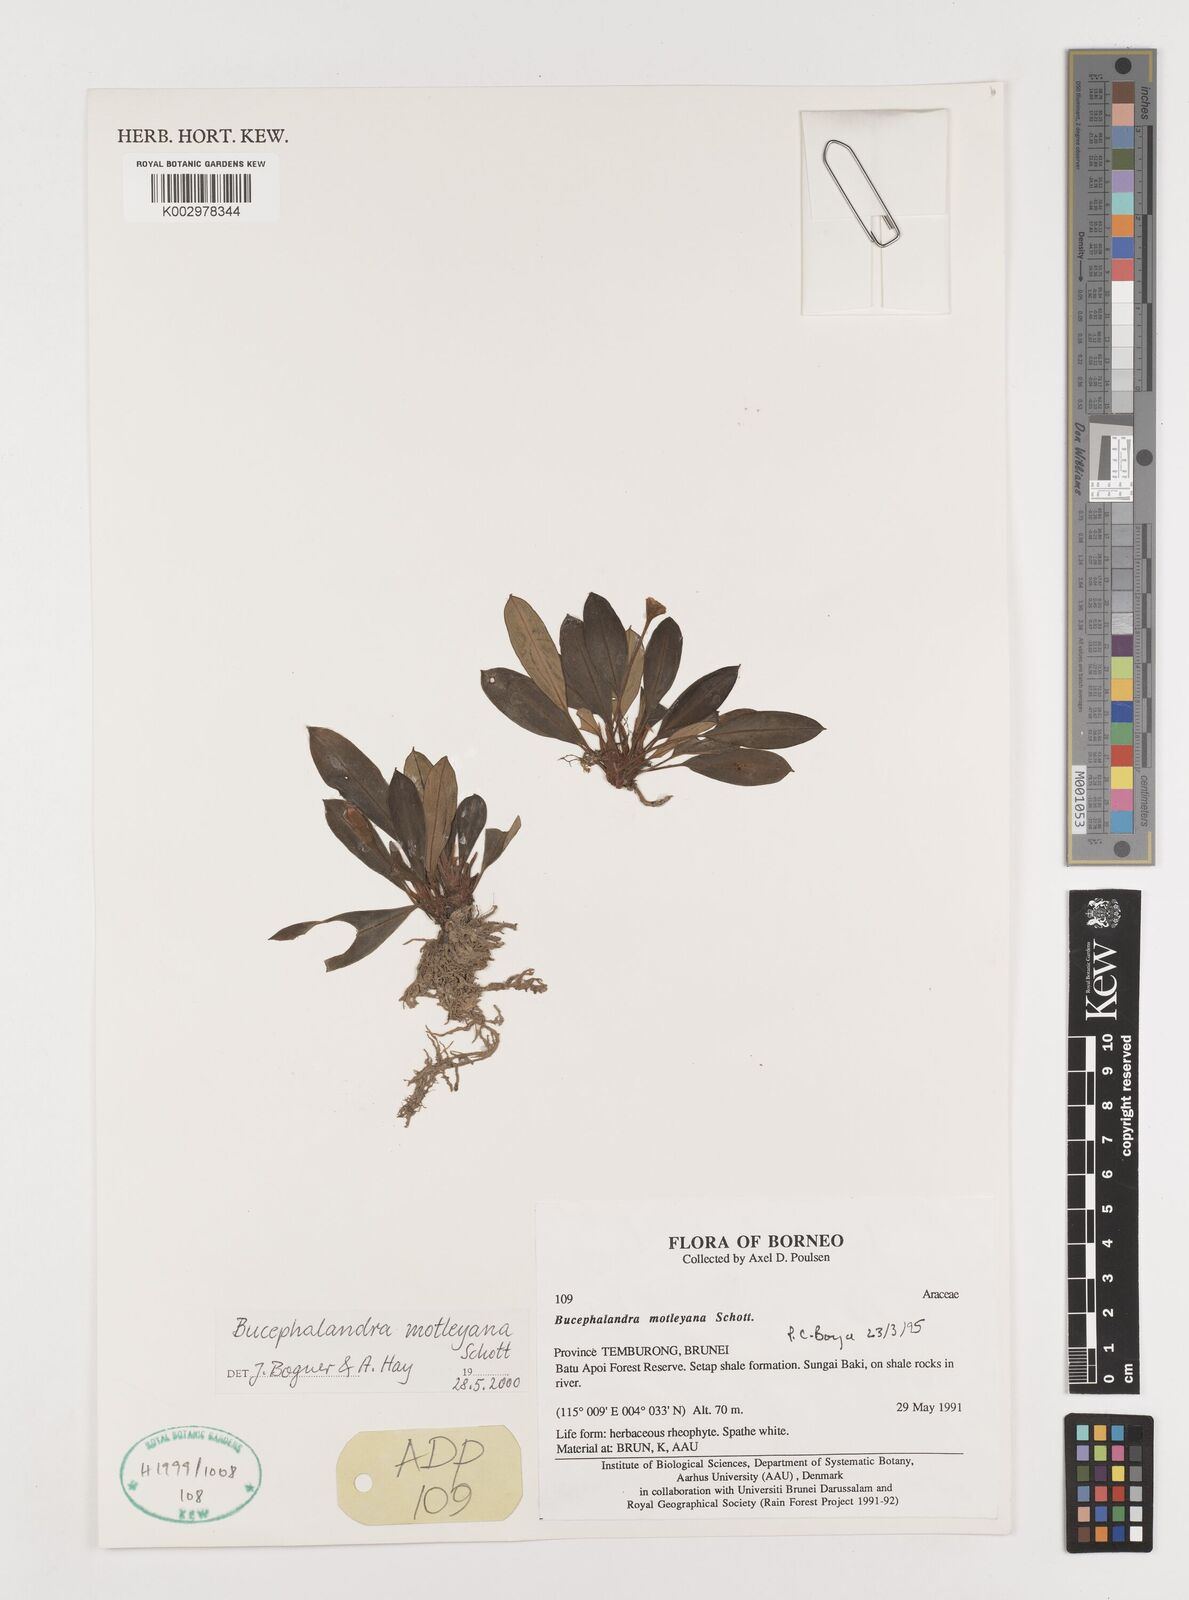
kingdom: Plantae
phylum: Tracheophyta
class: Liliopsida
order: Alismatales
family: Araceae
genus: Bucephalandra
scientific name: Bucephalandra motleyana
